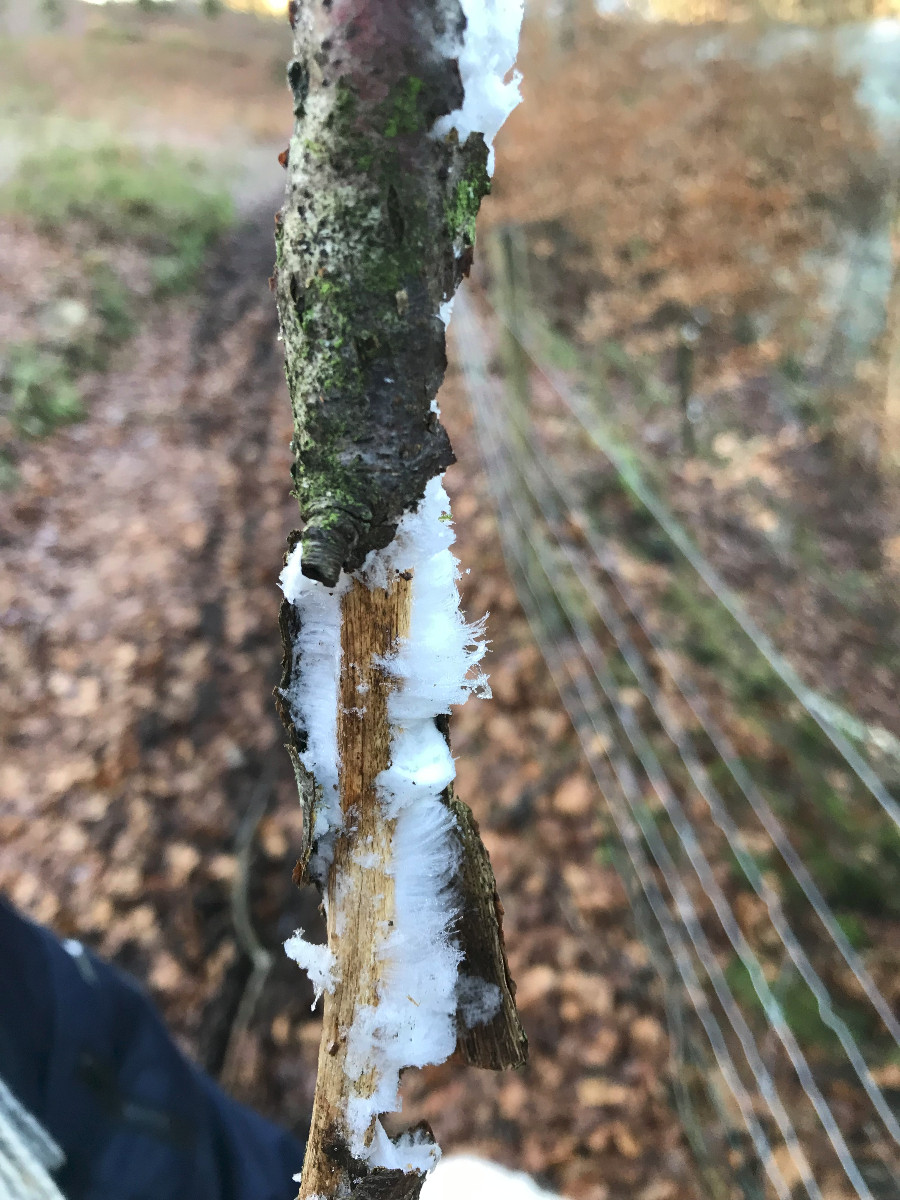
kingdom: Fungi
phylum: Basidiomycota
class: Tremellomycetes
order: Tremellales
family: Exidiaceae
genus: Exidiopsis
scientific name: Exidiopsis effusa
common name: smuk bævrehinde
